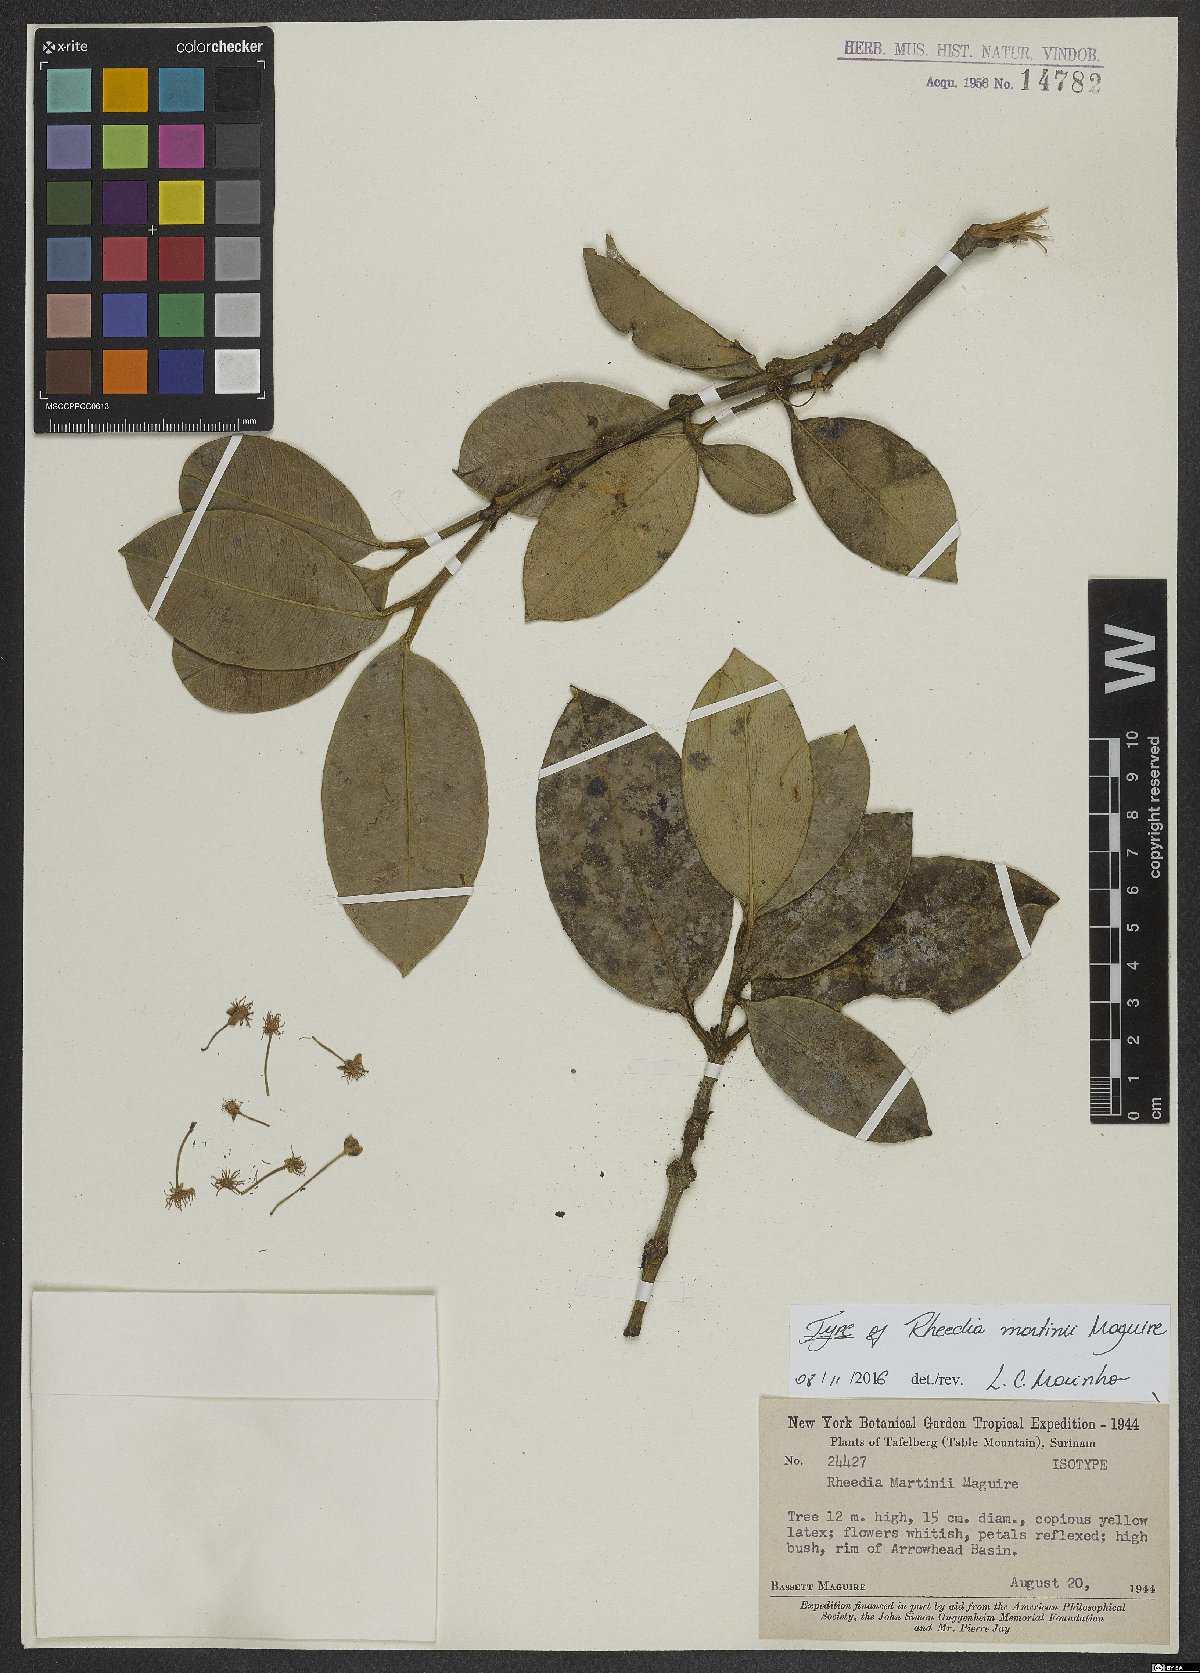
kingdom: Plantae
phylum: Tracheophyta
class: Magnoliopsida
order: Malpighiales
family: Clusiaceae
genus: Garcinia
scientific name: Garcinia martinii
